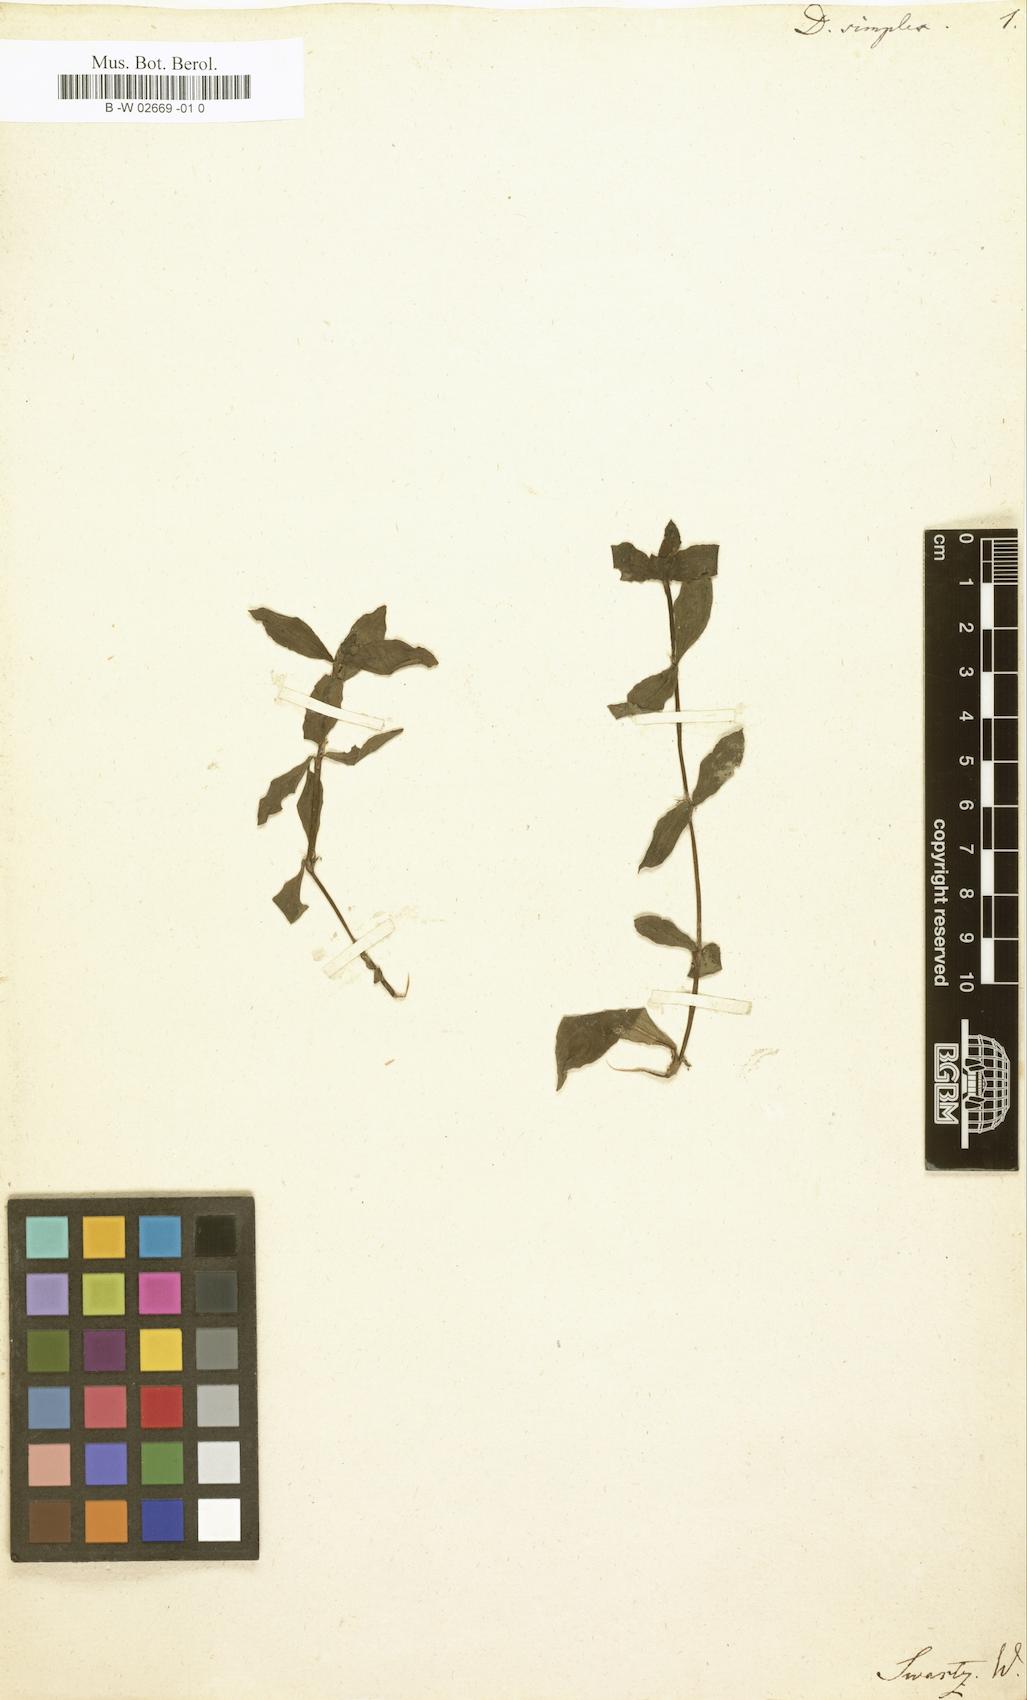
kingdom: Plantae
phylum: Tracheophyta
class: Magnoliopsida
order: Gentianales
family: Rubiaceae
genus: Diodia
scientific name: Diodia simplex
